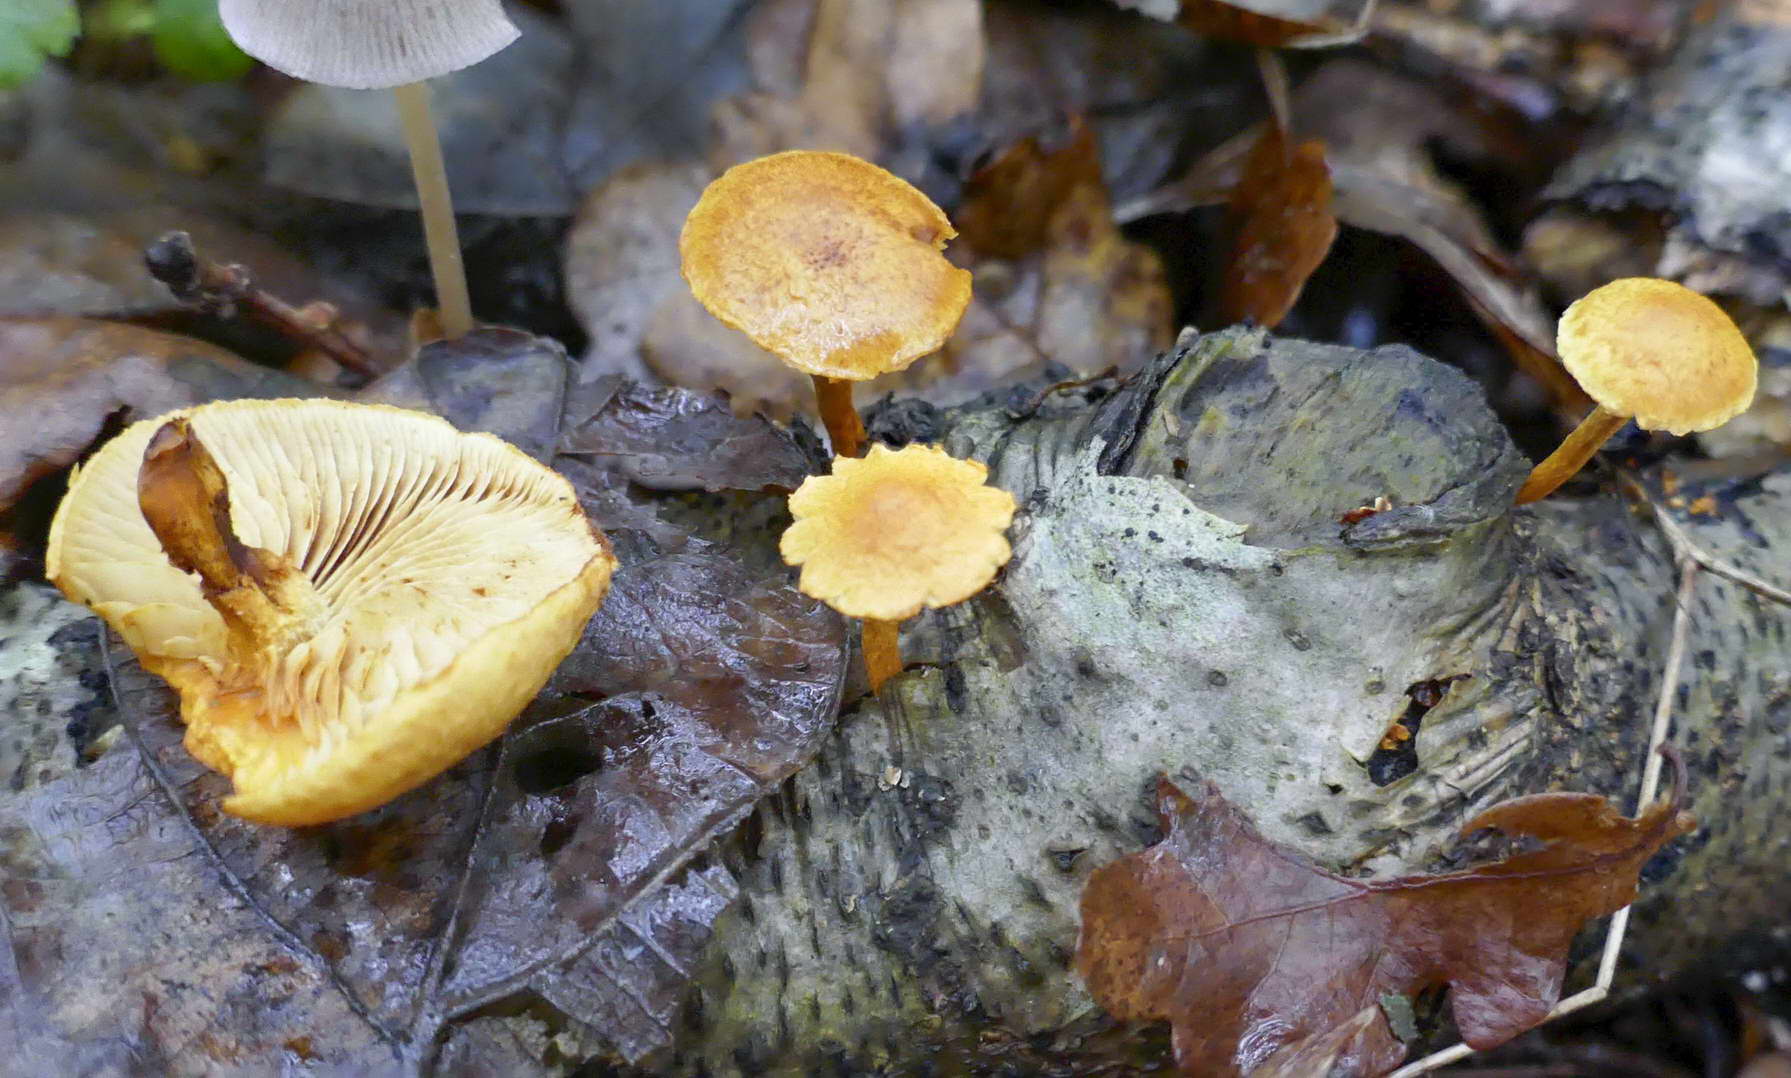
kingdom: Fungi
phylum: Basidiomycota
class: Agaricomycetes
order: Agaricales
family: Strophariaceae
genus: Pholiota
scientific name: Pholiota tuberculosa
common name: finskællet skælhat
